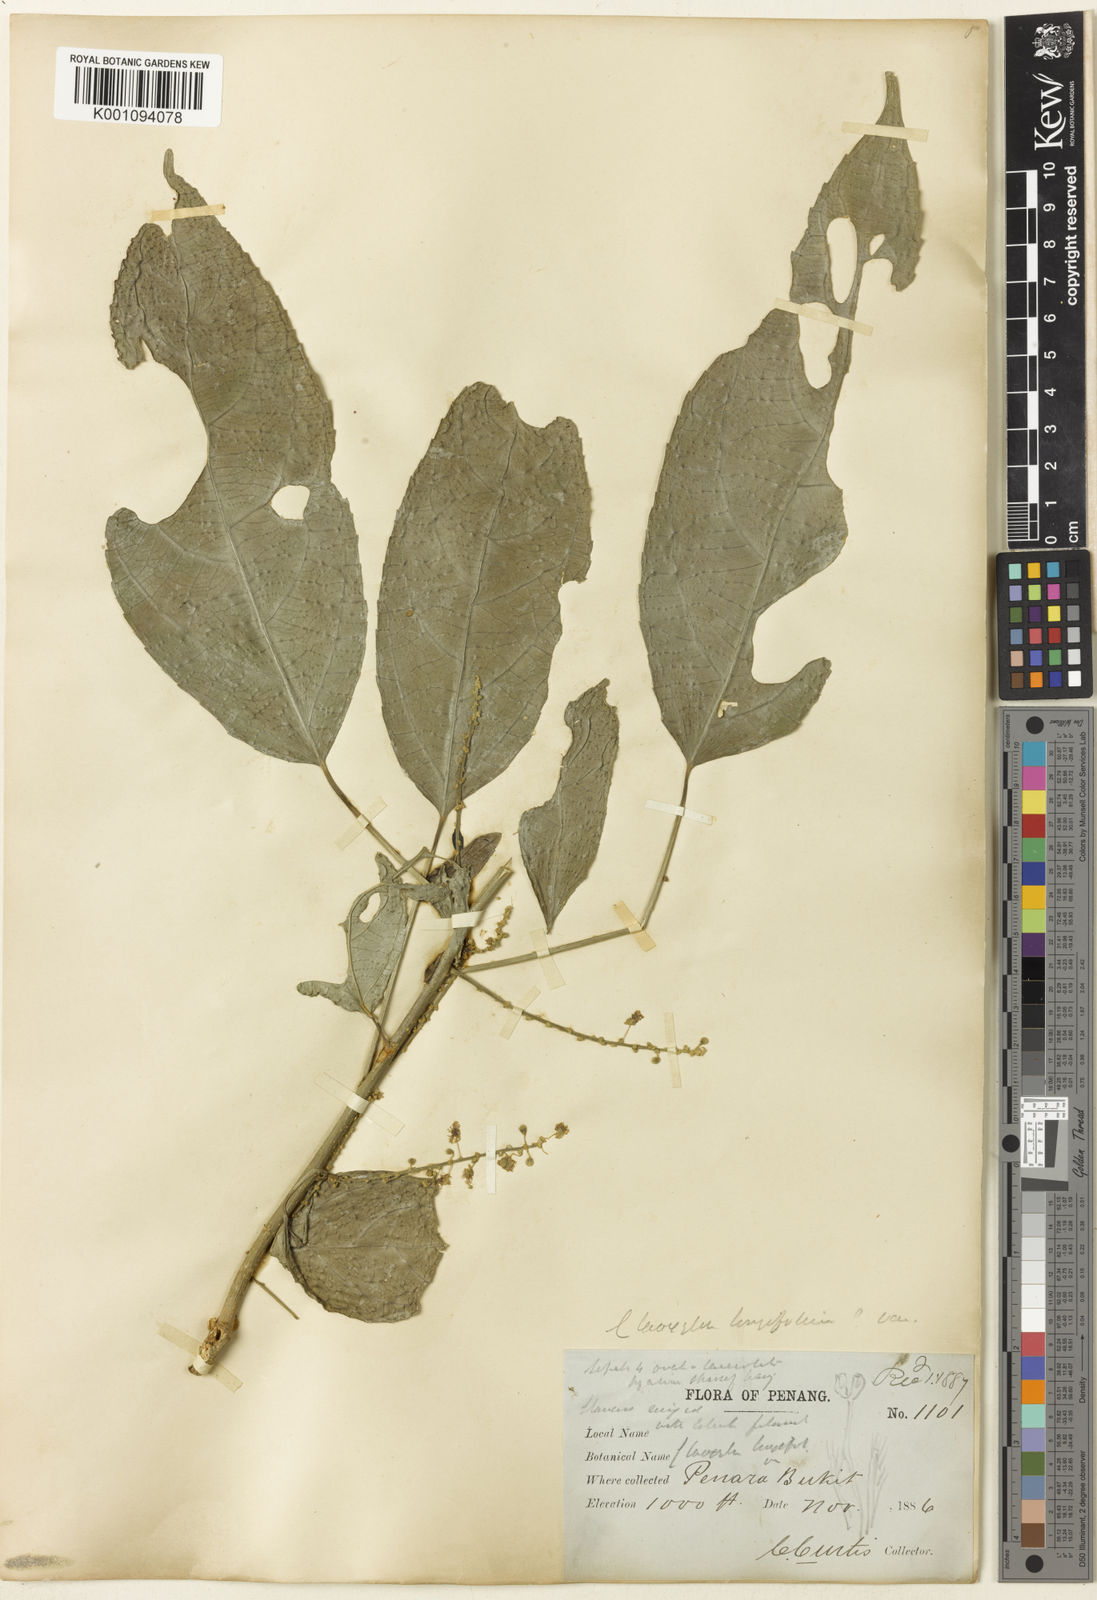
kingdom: Plantae
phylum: Tracheophyta
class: Magnoliopsida
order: Malpighiales
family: Euphorbiaceae
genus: Claoxylon
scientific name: Claoxylon longifolium
